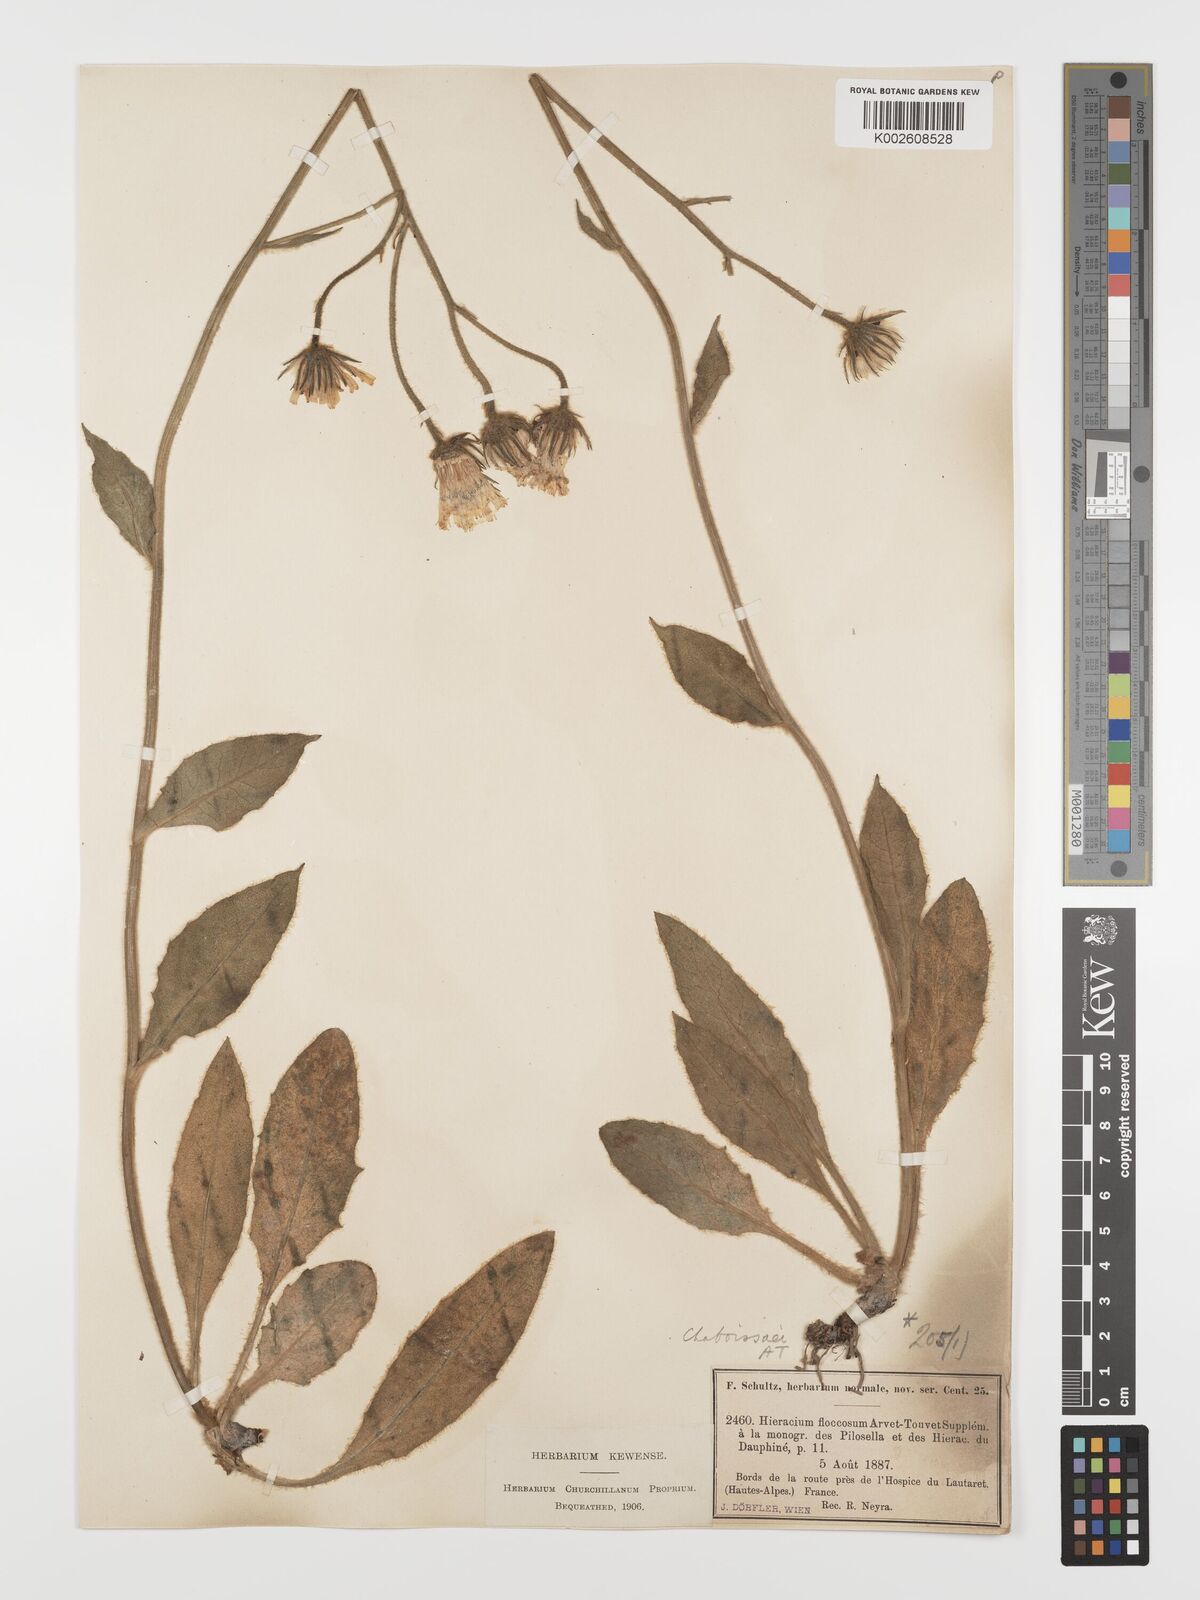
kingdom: Plantae
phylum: Tracheophyta
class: Magnoliopsida
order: Asterales
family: Asteraceae
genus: Hieracium
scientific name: Hieracium chaboissaei
